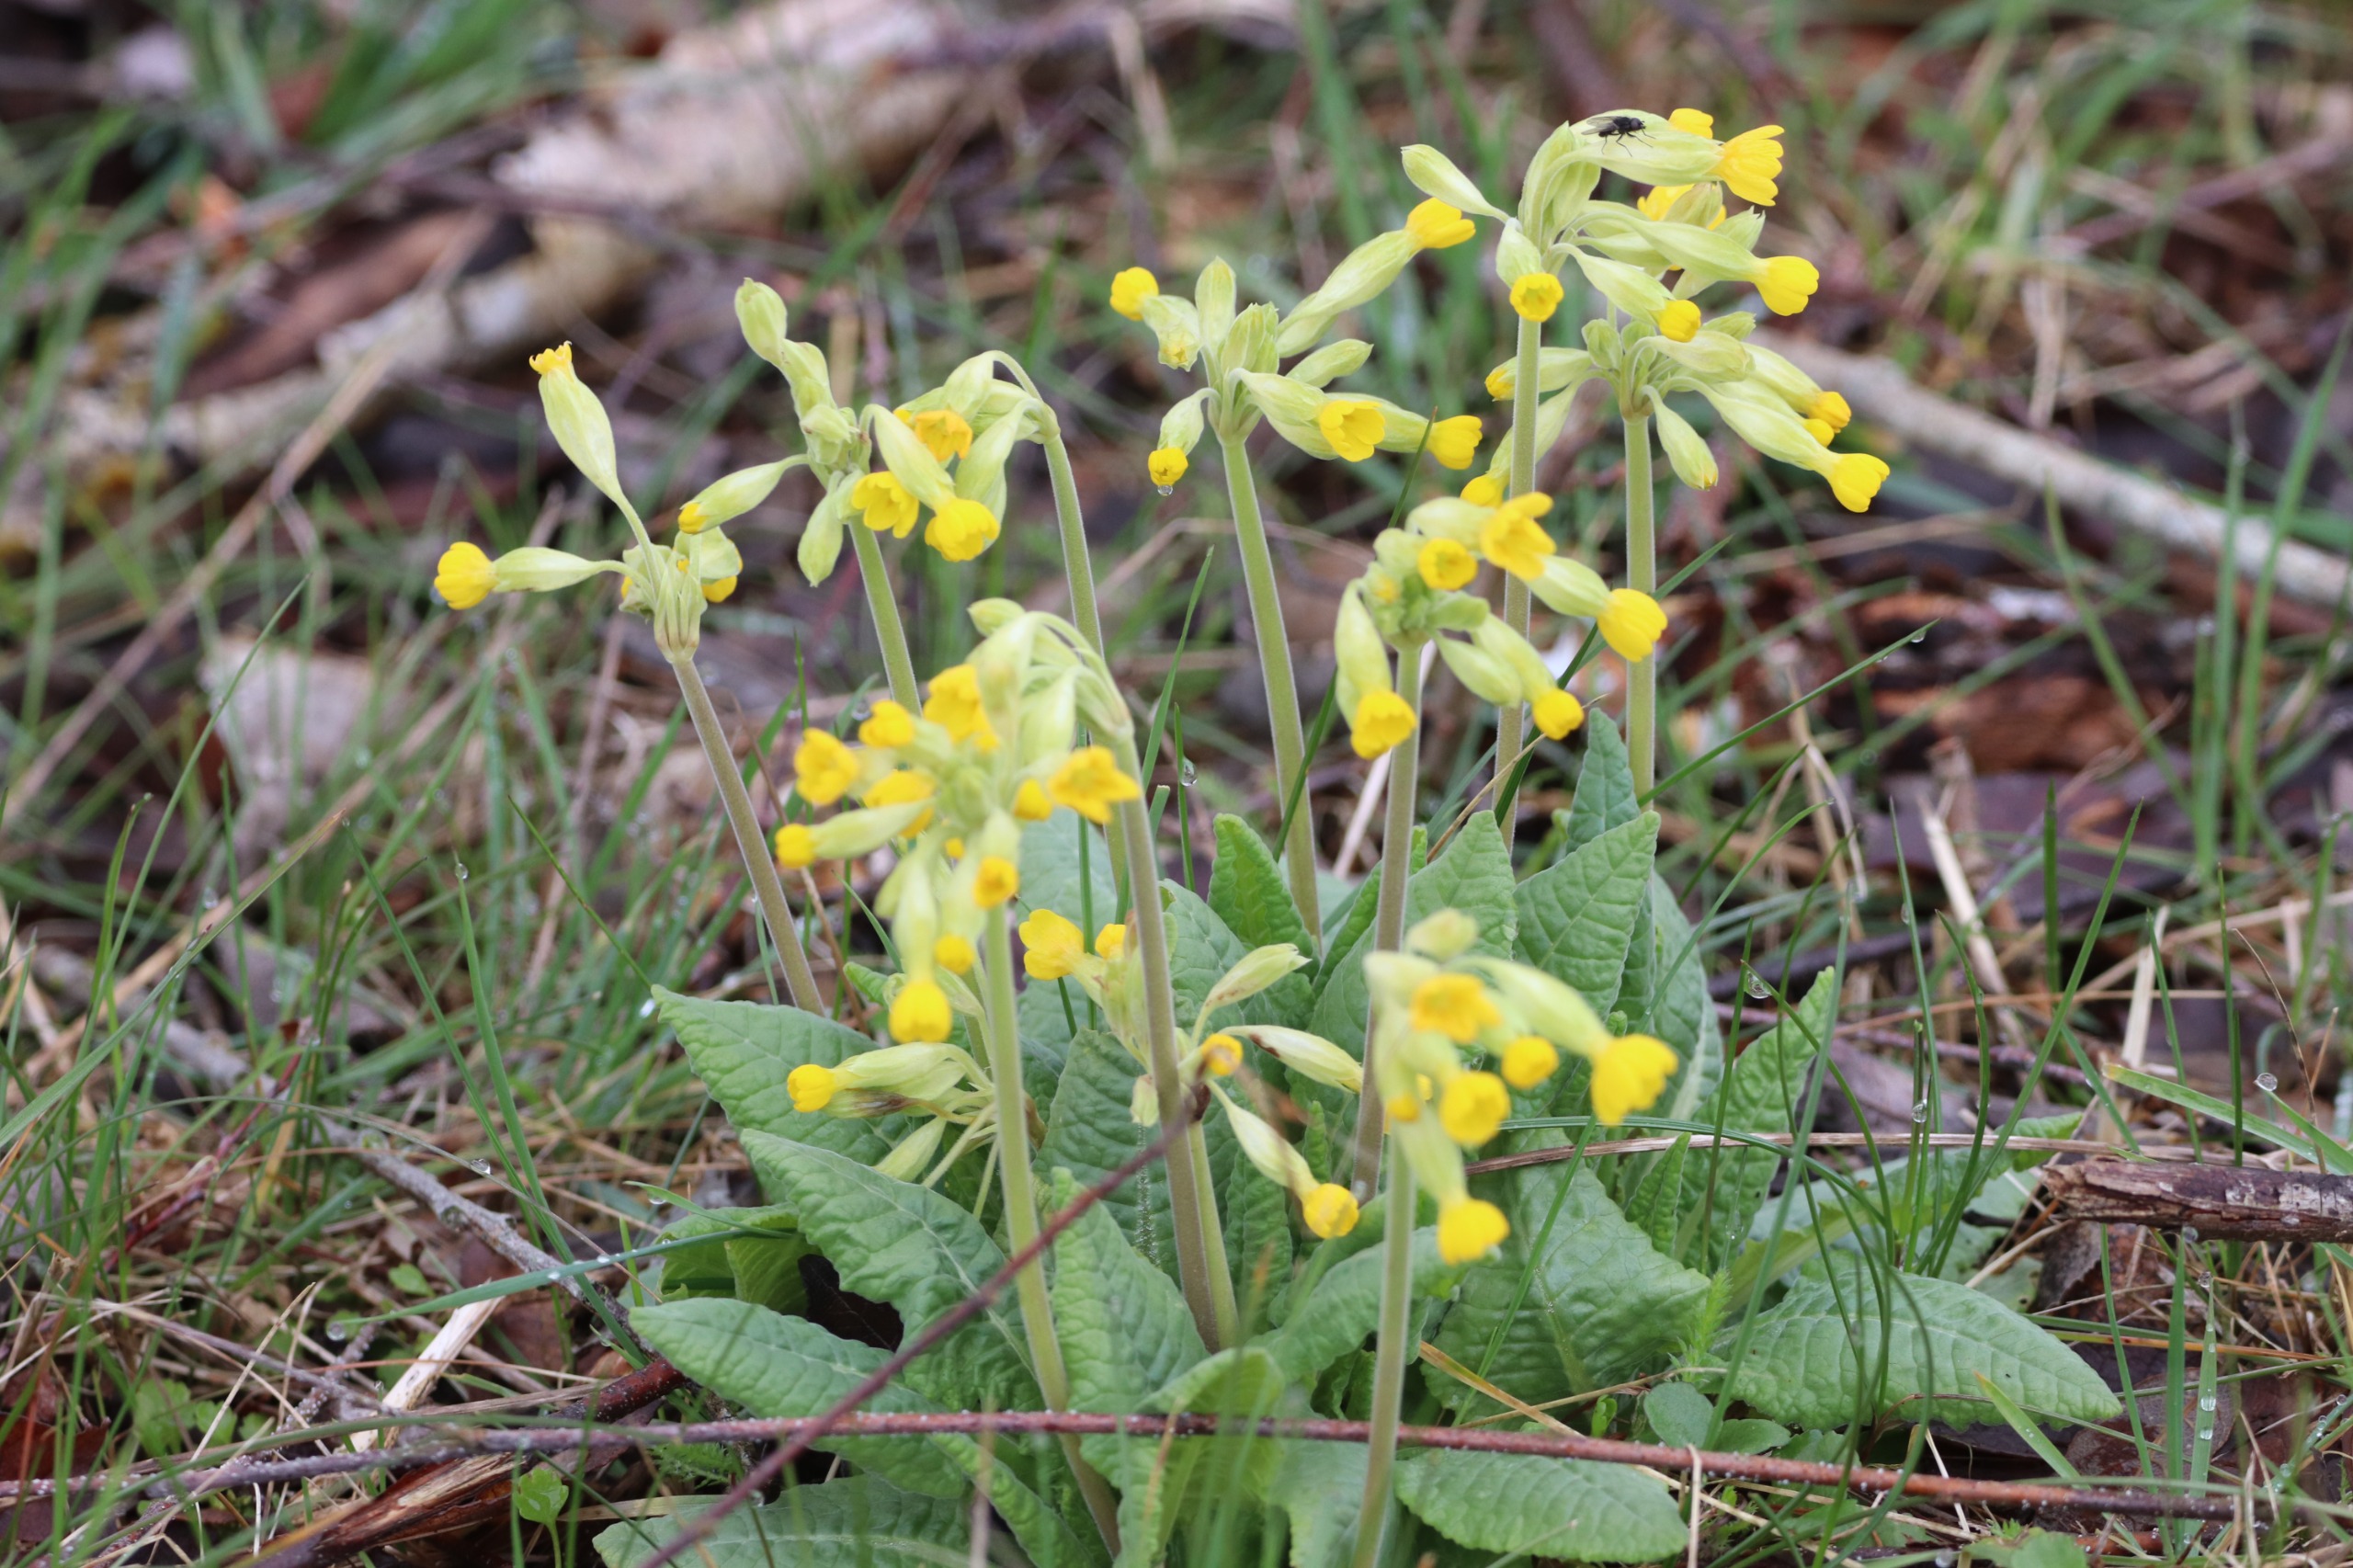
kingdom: Plantae
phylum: Tracheophyta
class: Magnoliopsida
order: Ericales
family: Primulaceae
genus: Primula
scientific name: Primula veris
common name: Hulkravet kodriver
